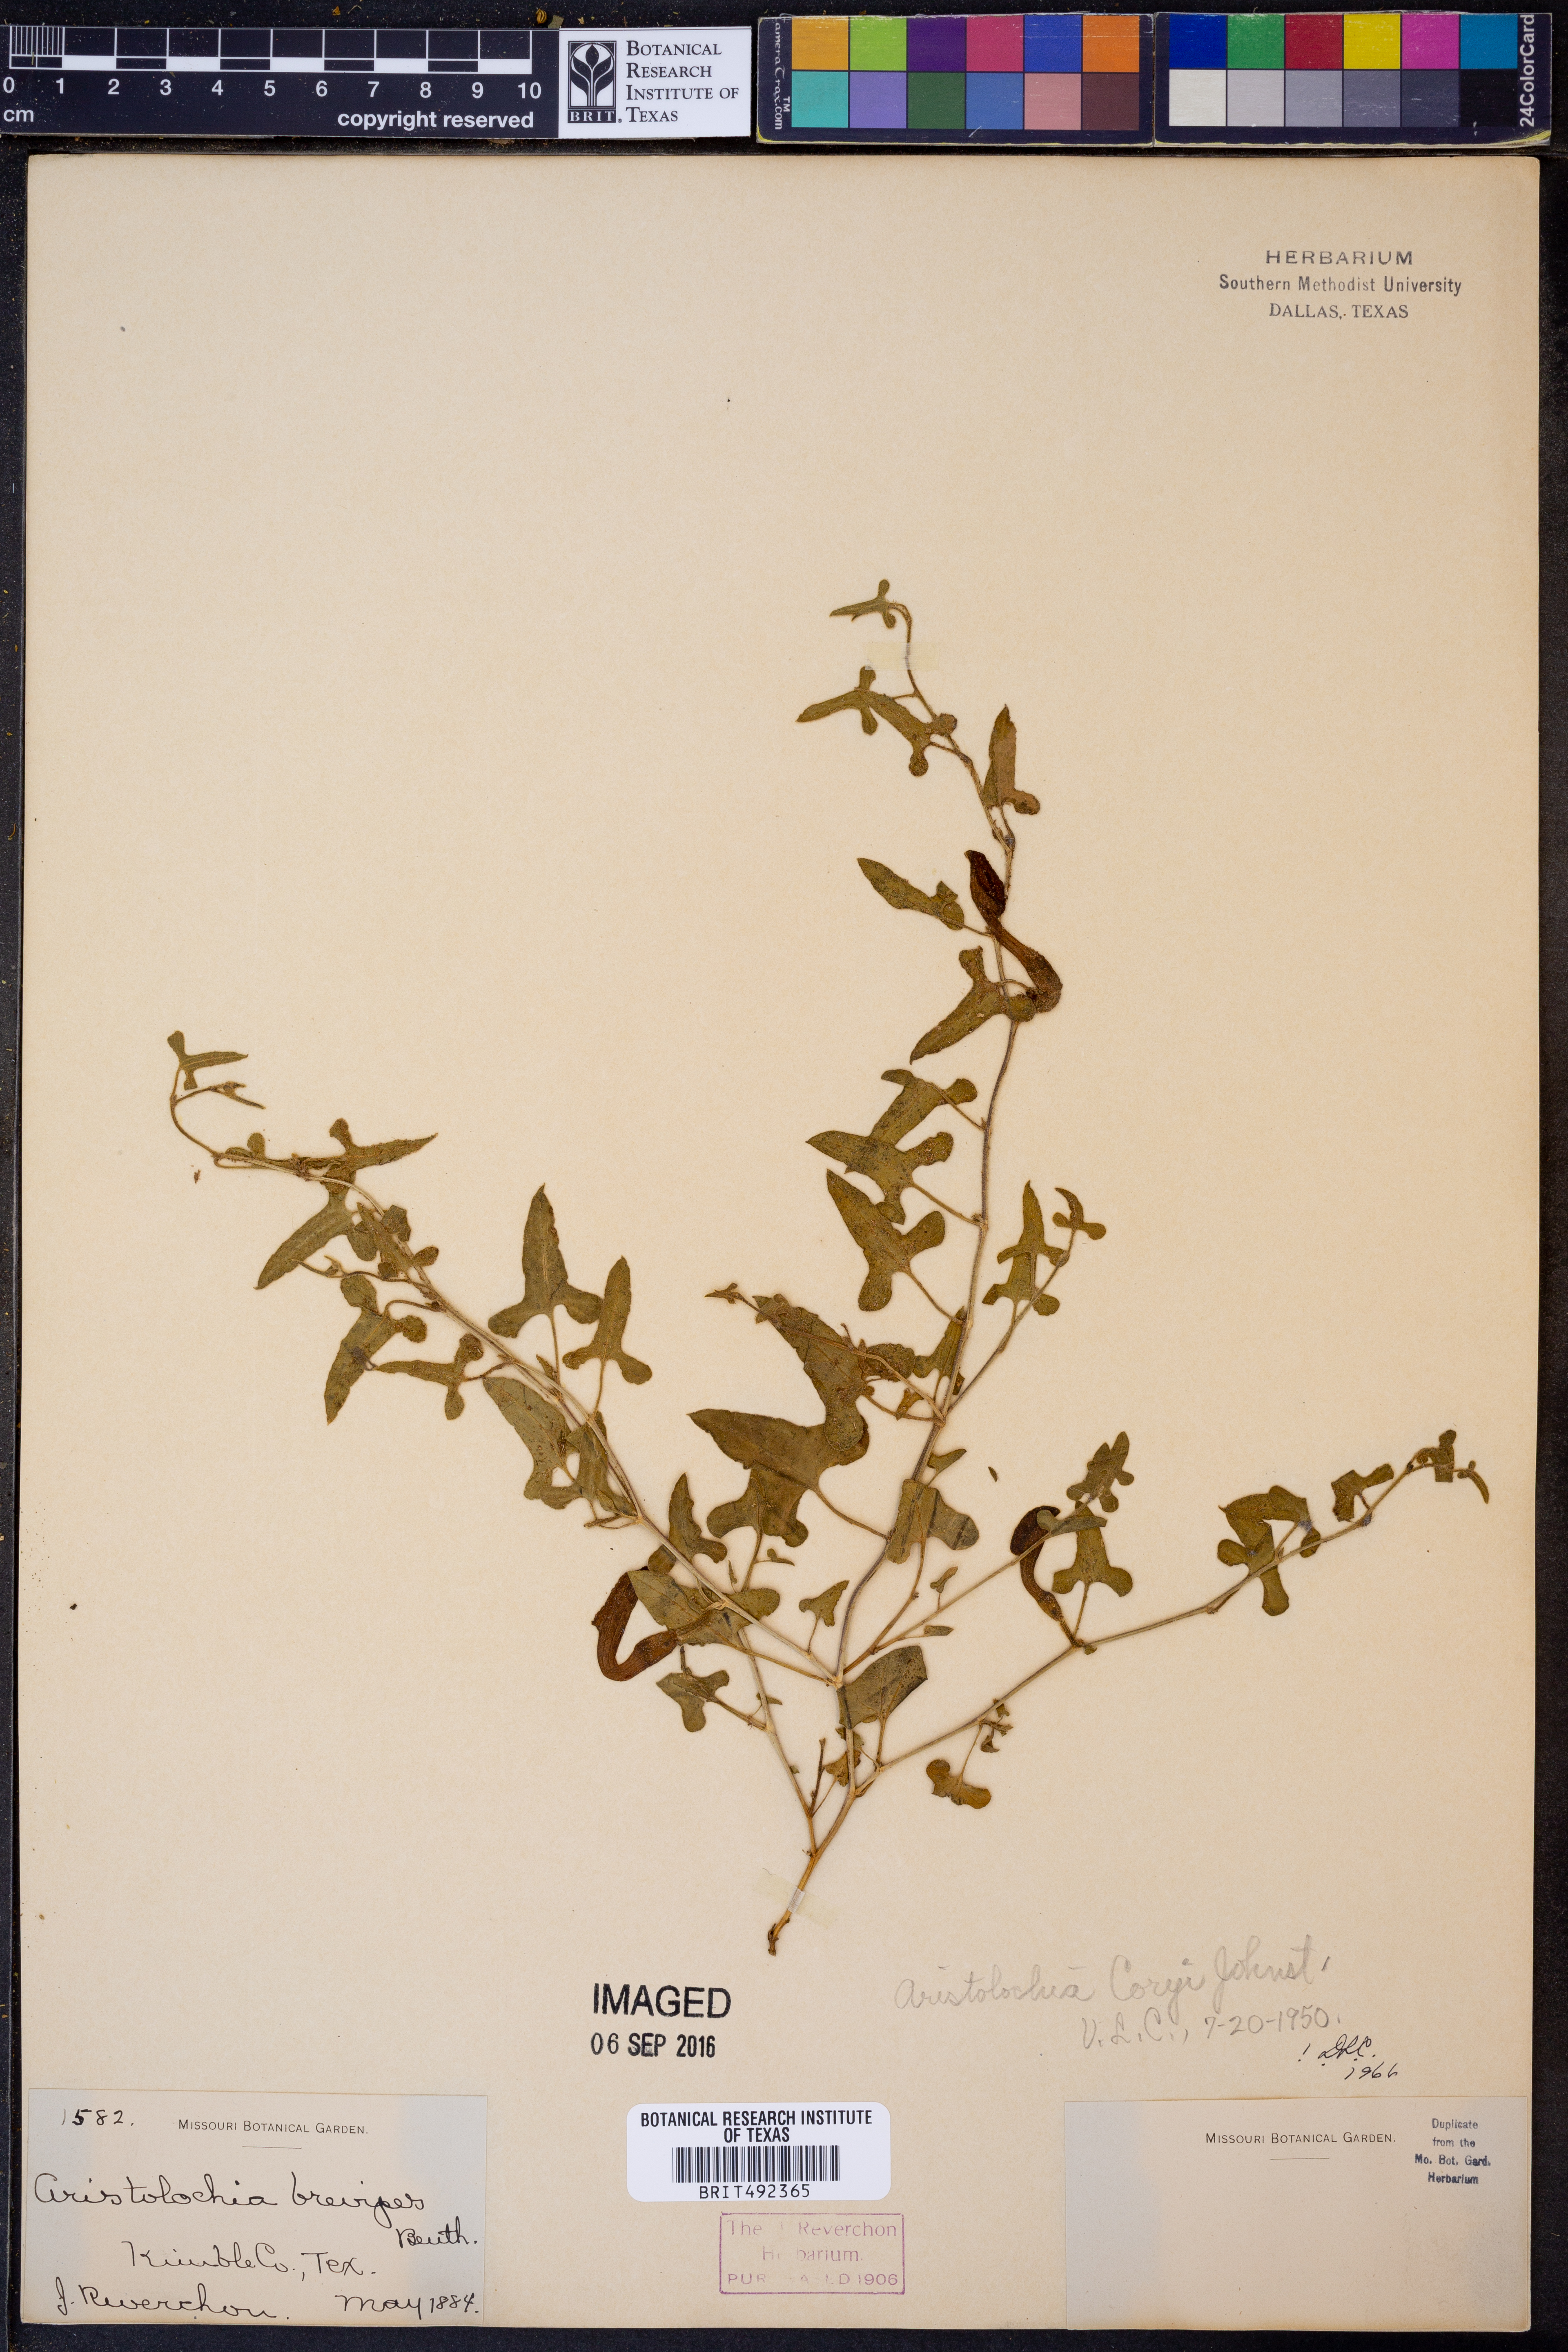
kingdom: Plantae
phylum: Tracheophyta
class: Magnoliopsida
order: Piperales
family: Aristolochiaceae
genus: Aristolochia
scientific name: Aristolochia coryi
